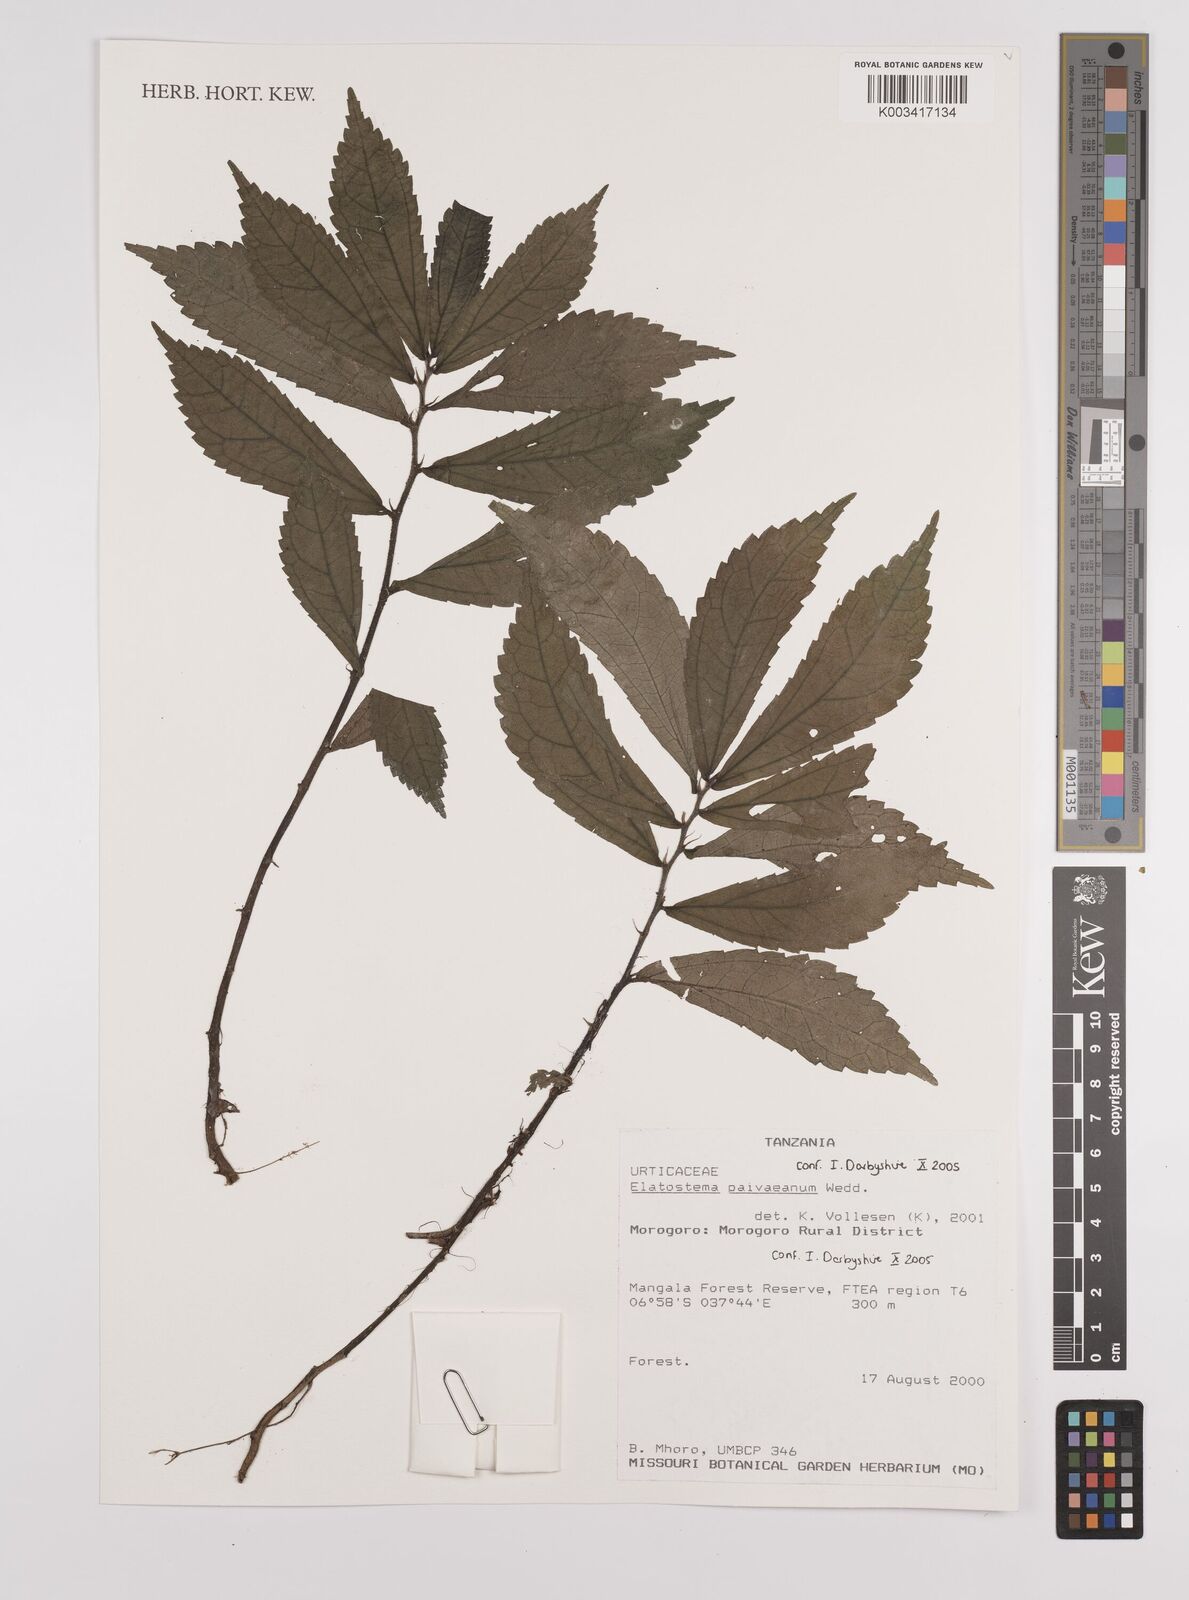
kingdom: Plantae
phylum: Tracheophyta
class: Magnoliopsida
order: Rosales
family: Urticaceae
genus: Elatostema
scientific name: Elatostema paivaeanum
